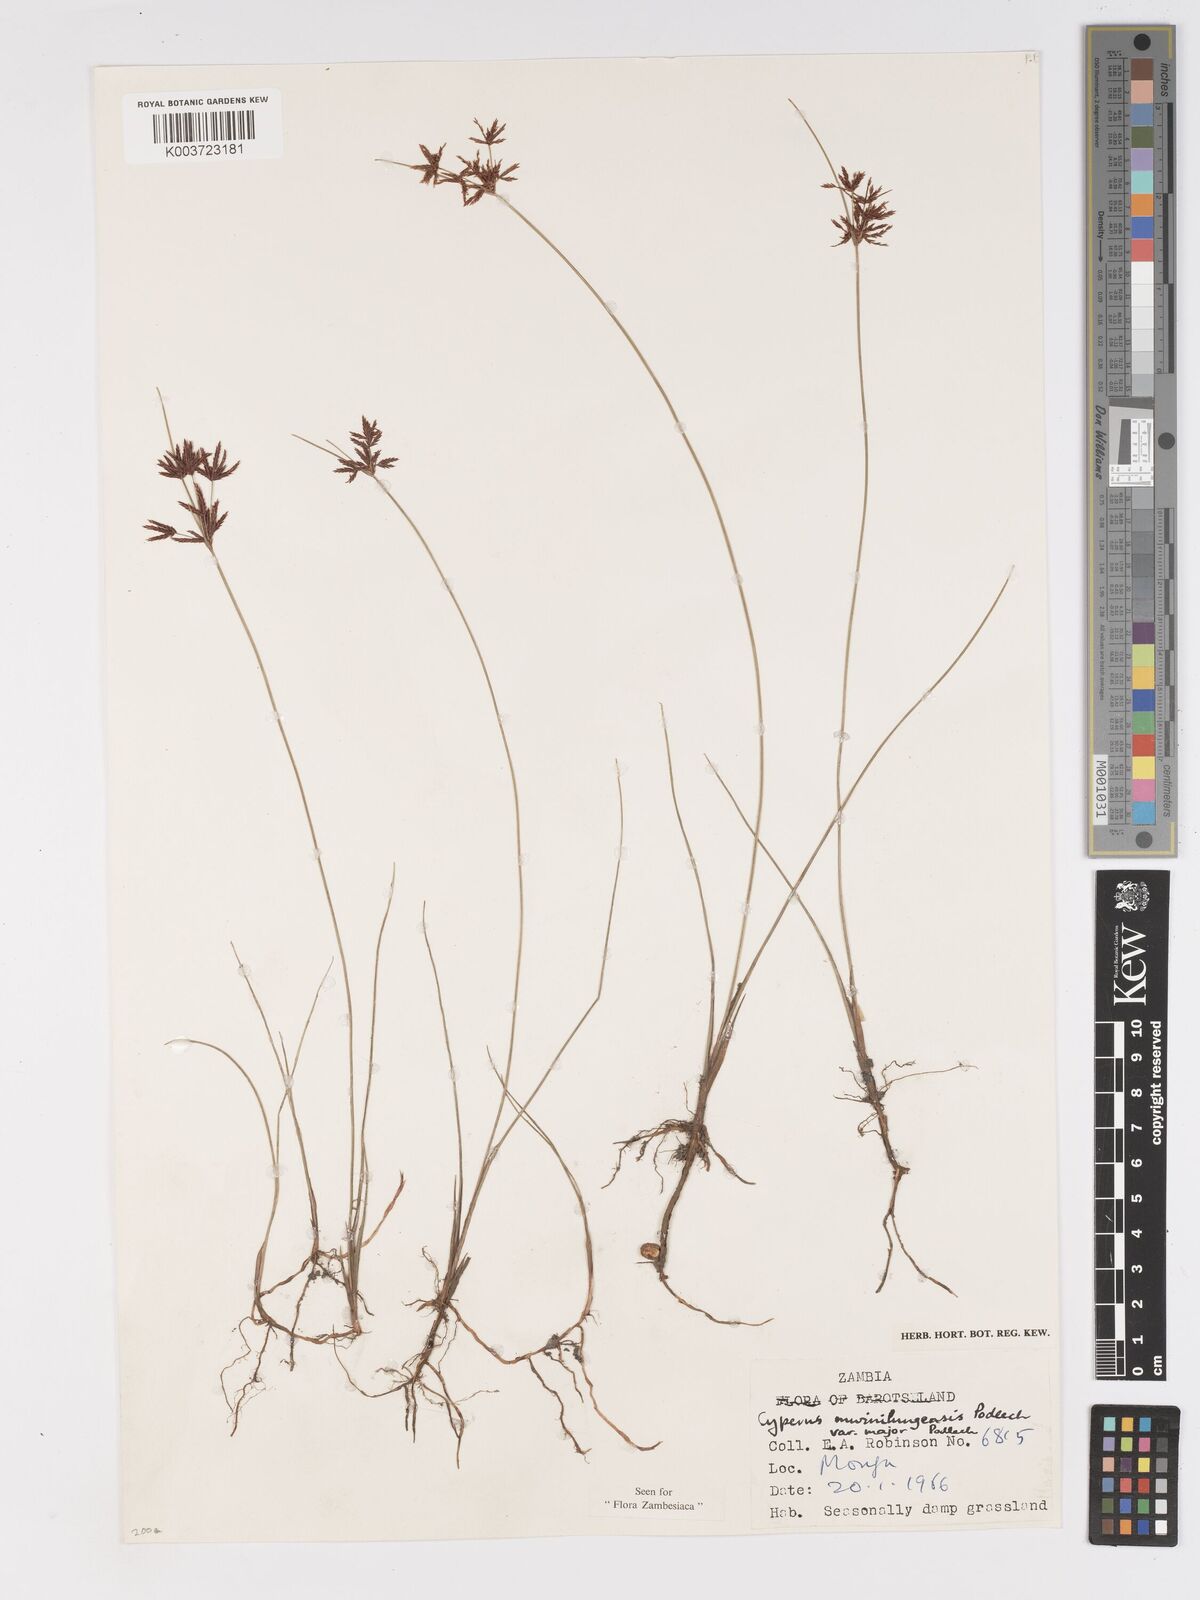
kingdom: Plantae
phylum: Tracheophyta
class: Liliopsida
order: Poales
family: Cyperaceae
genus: Cyperus
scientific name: Cyperus mwinilungensis
